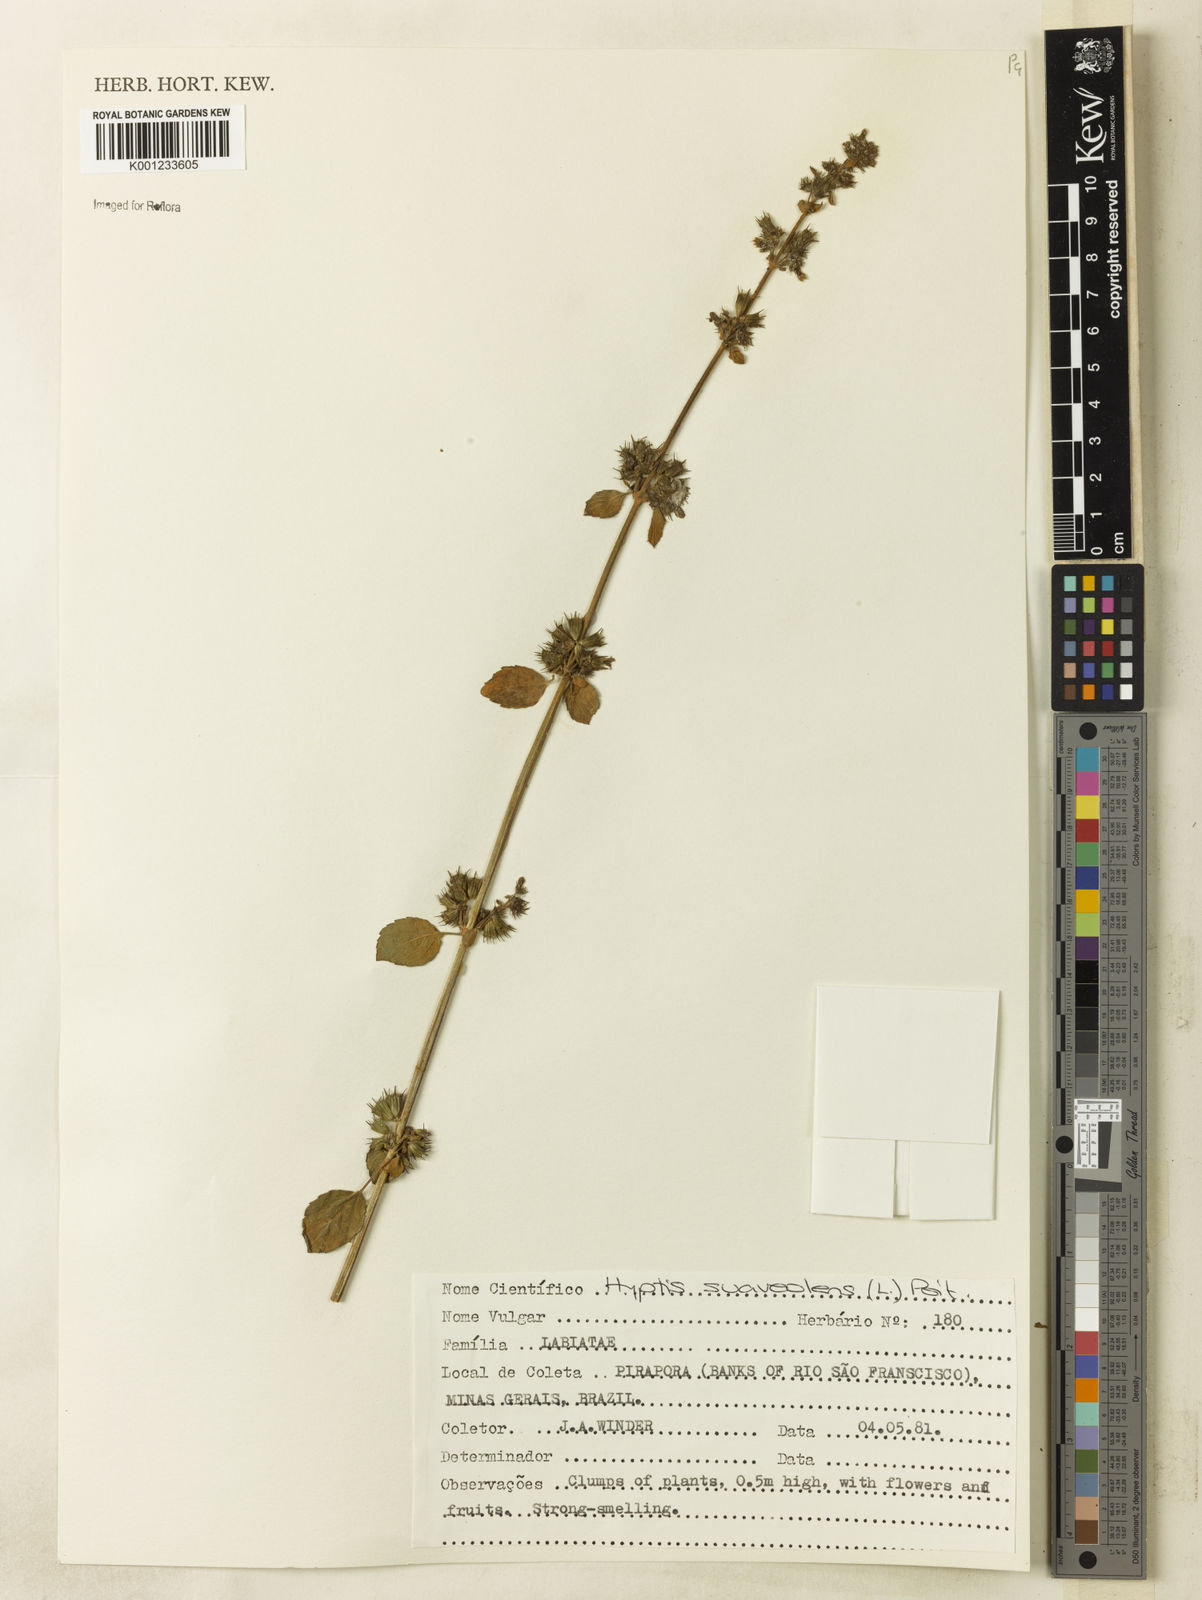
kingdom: Plantae
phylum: Tracheophyta
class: Magnoliopsida
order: Lamiales
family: Lamiaceae
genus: Mesosphaerum
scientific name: Mesosphaerum suaveolens
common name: Pignut
